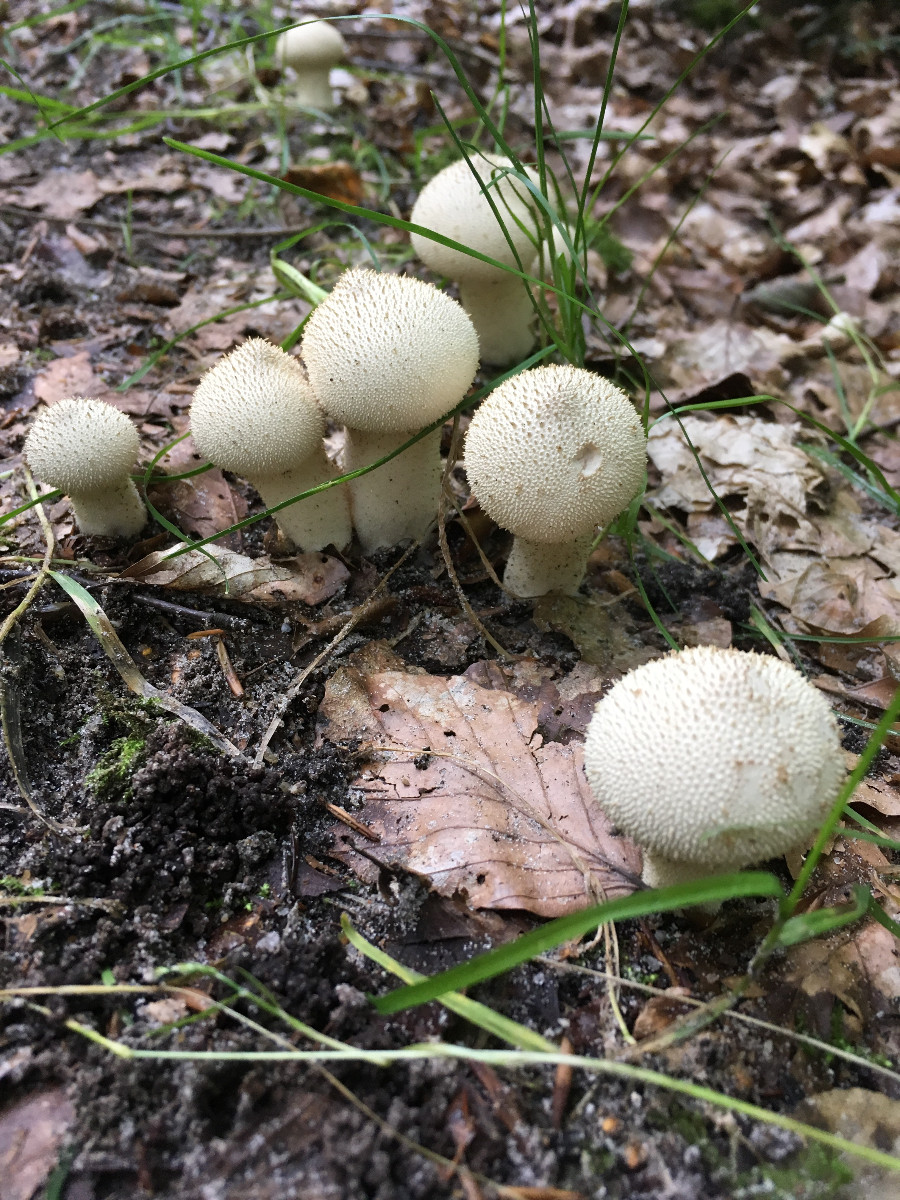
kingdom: Fungi
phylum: Basidiomycota
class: Agaricomycetes
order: Agaricales
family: Lycoperdaceae
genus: Lycoperdon
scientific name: Lycoperdon perlatum
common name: krystal-støvbold
